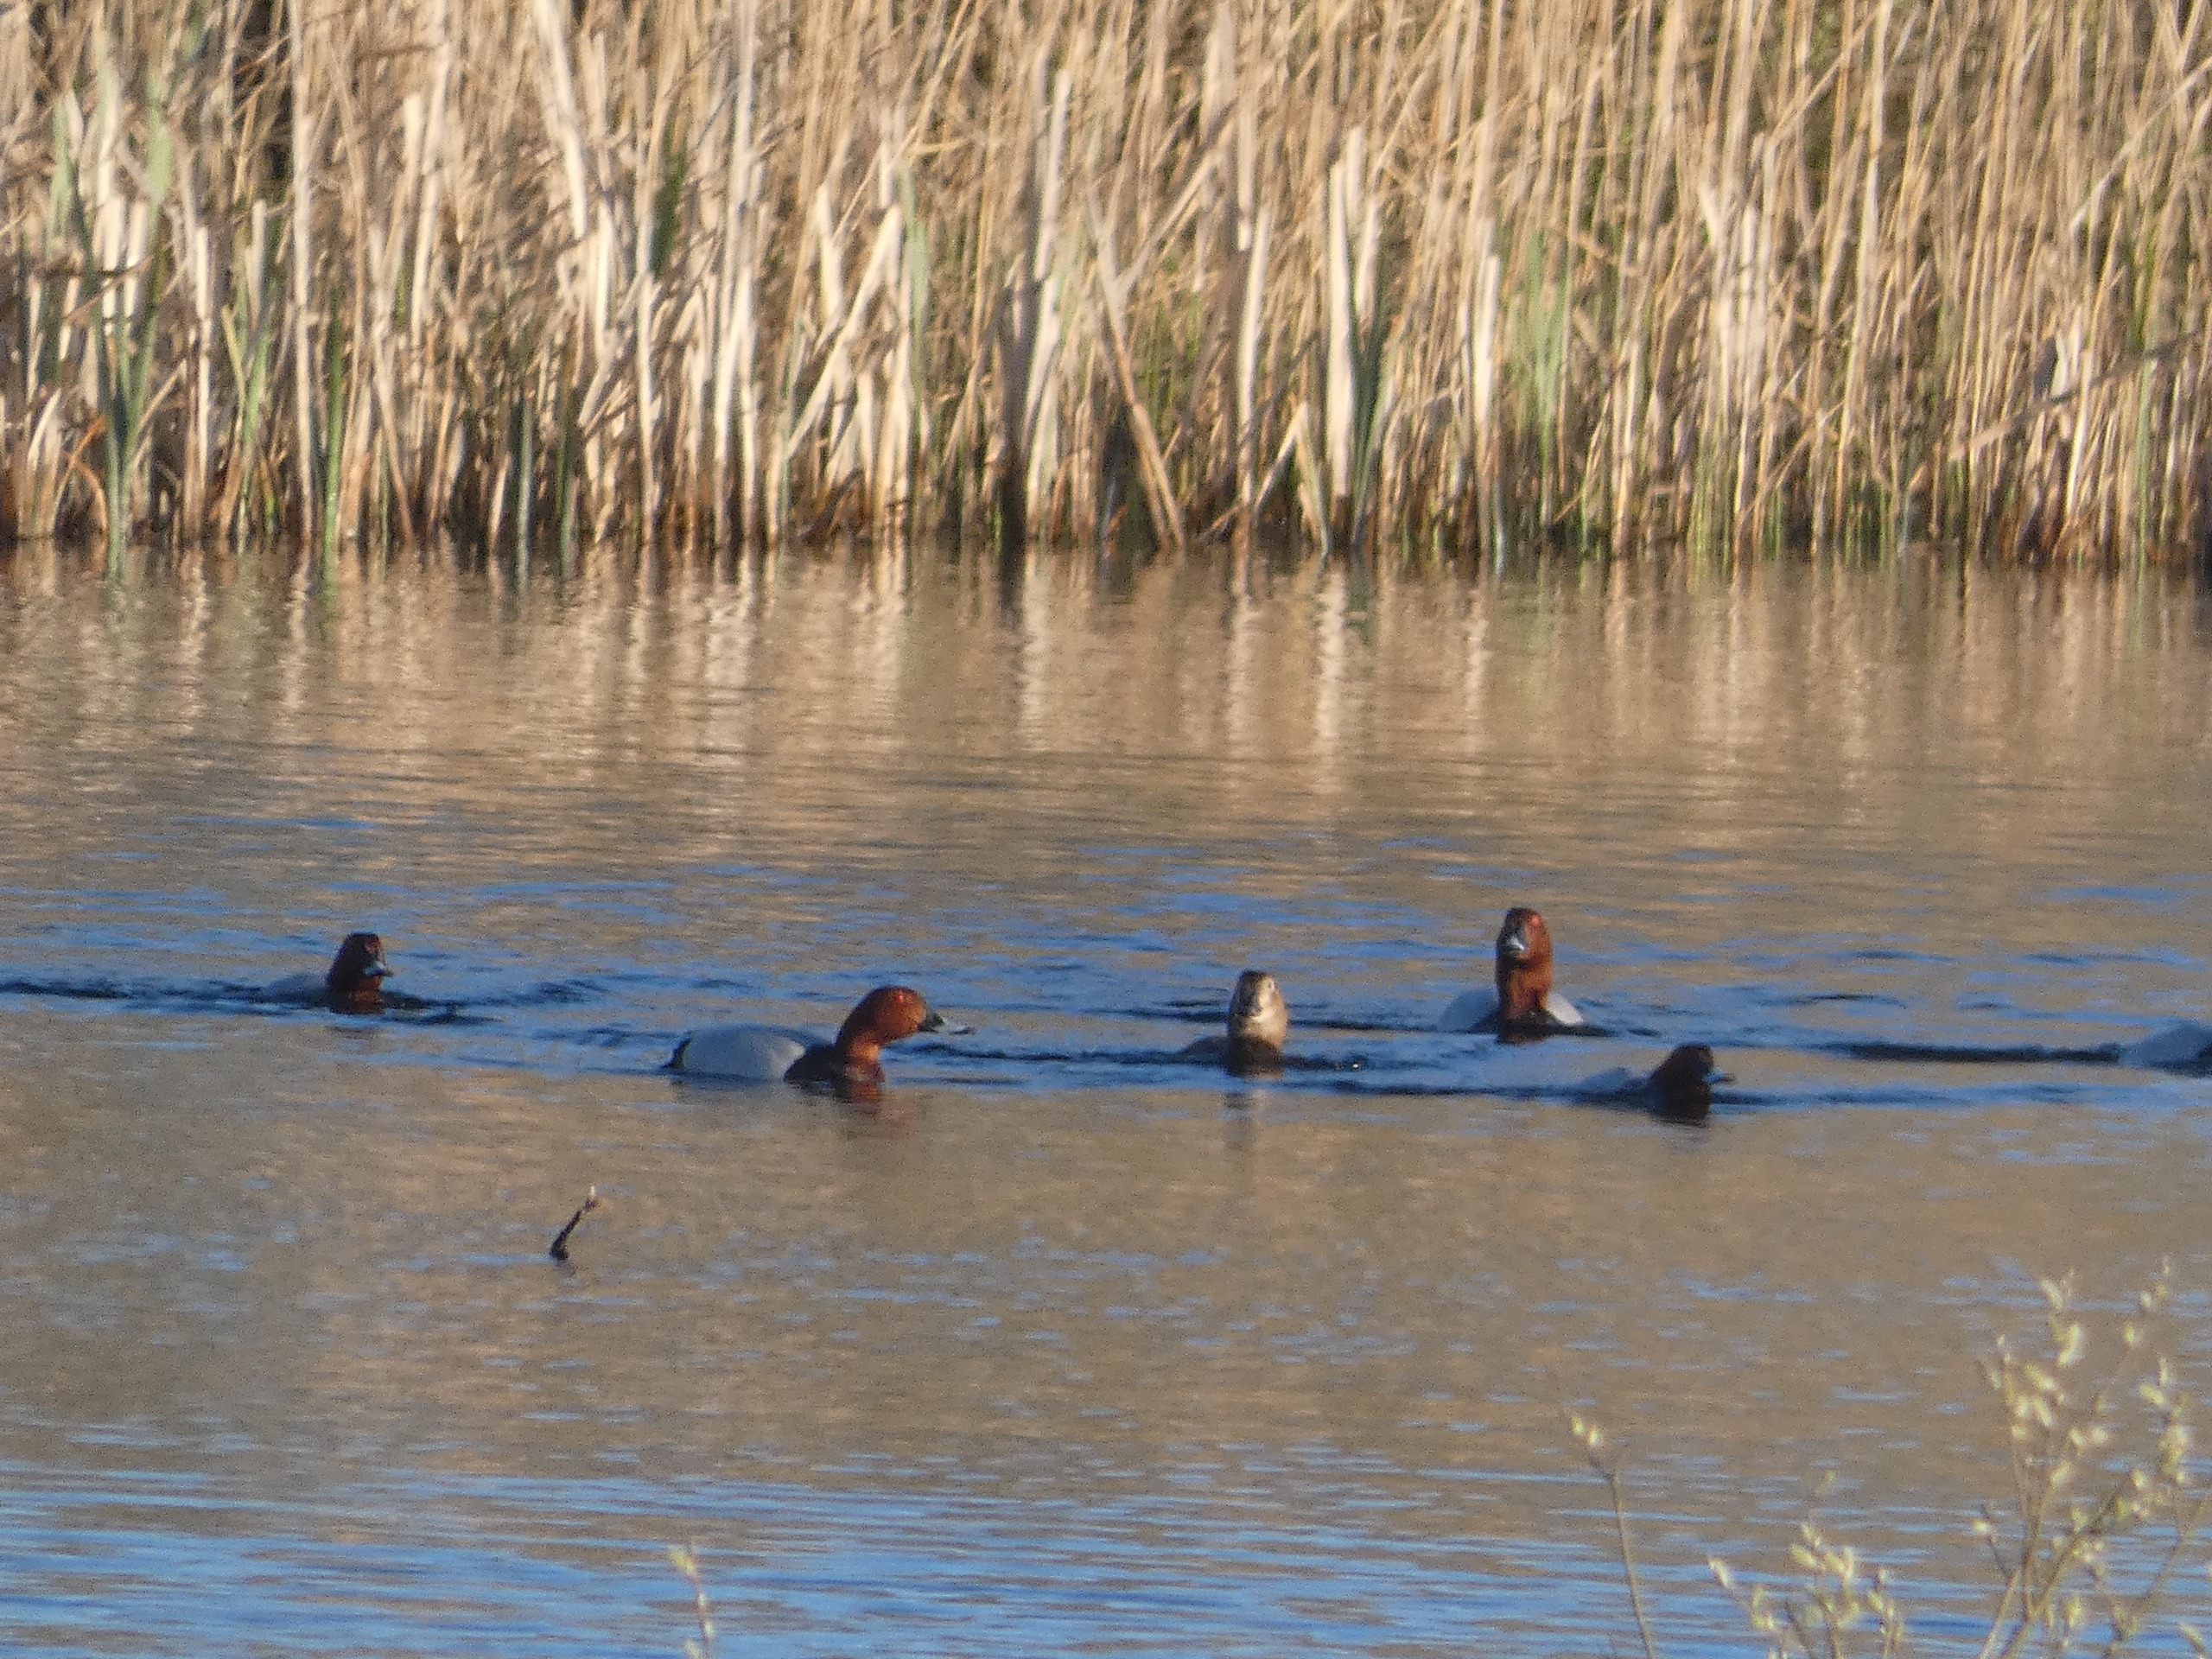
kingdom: Animalia
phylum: Chordata
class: Aves
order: Anseriformes
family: Anatidae
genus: Aythya
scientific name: Aythya ferina
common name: Taffeland
